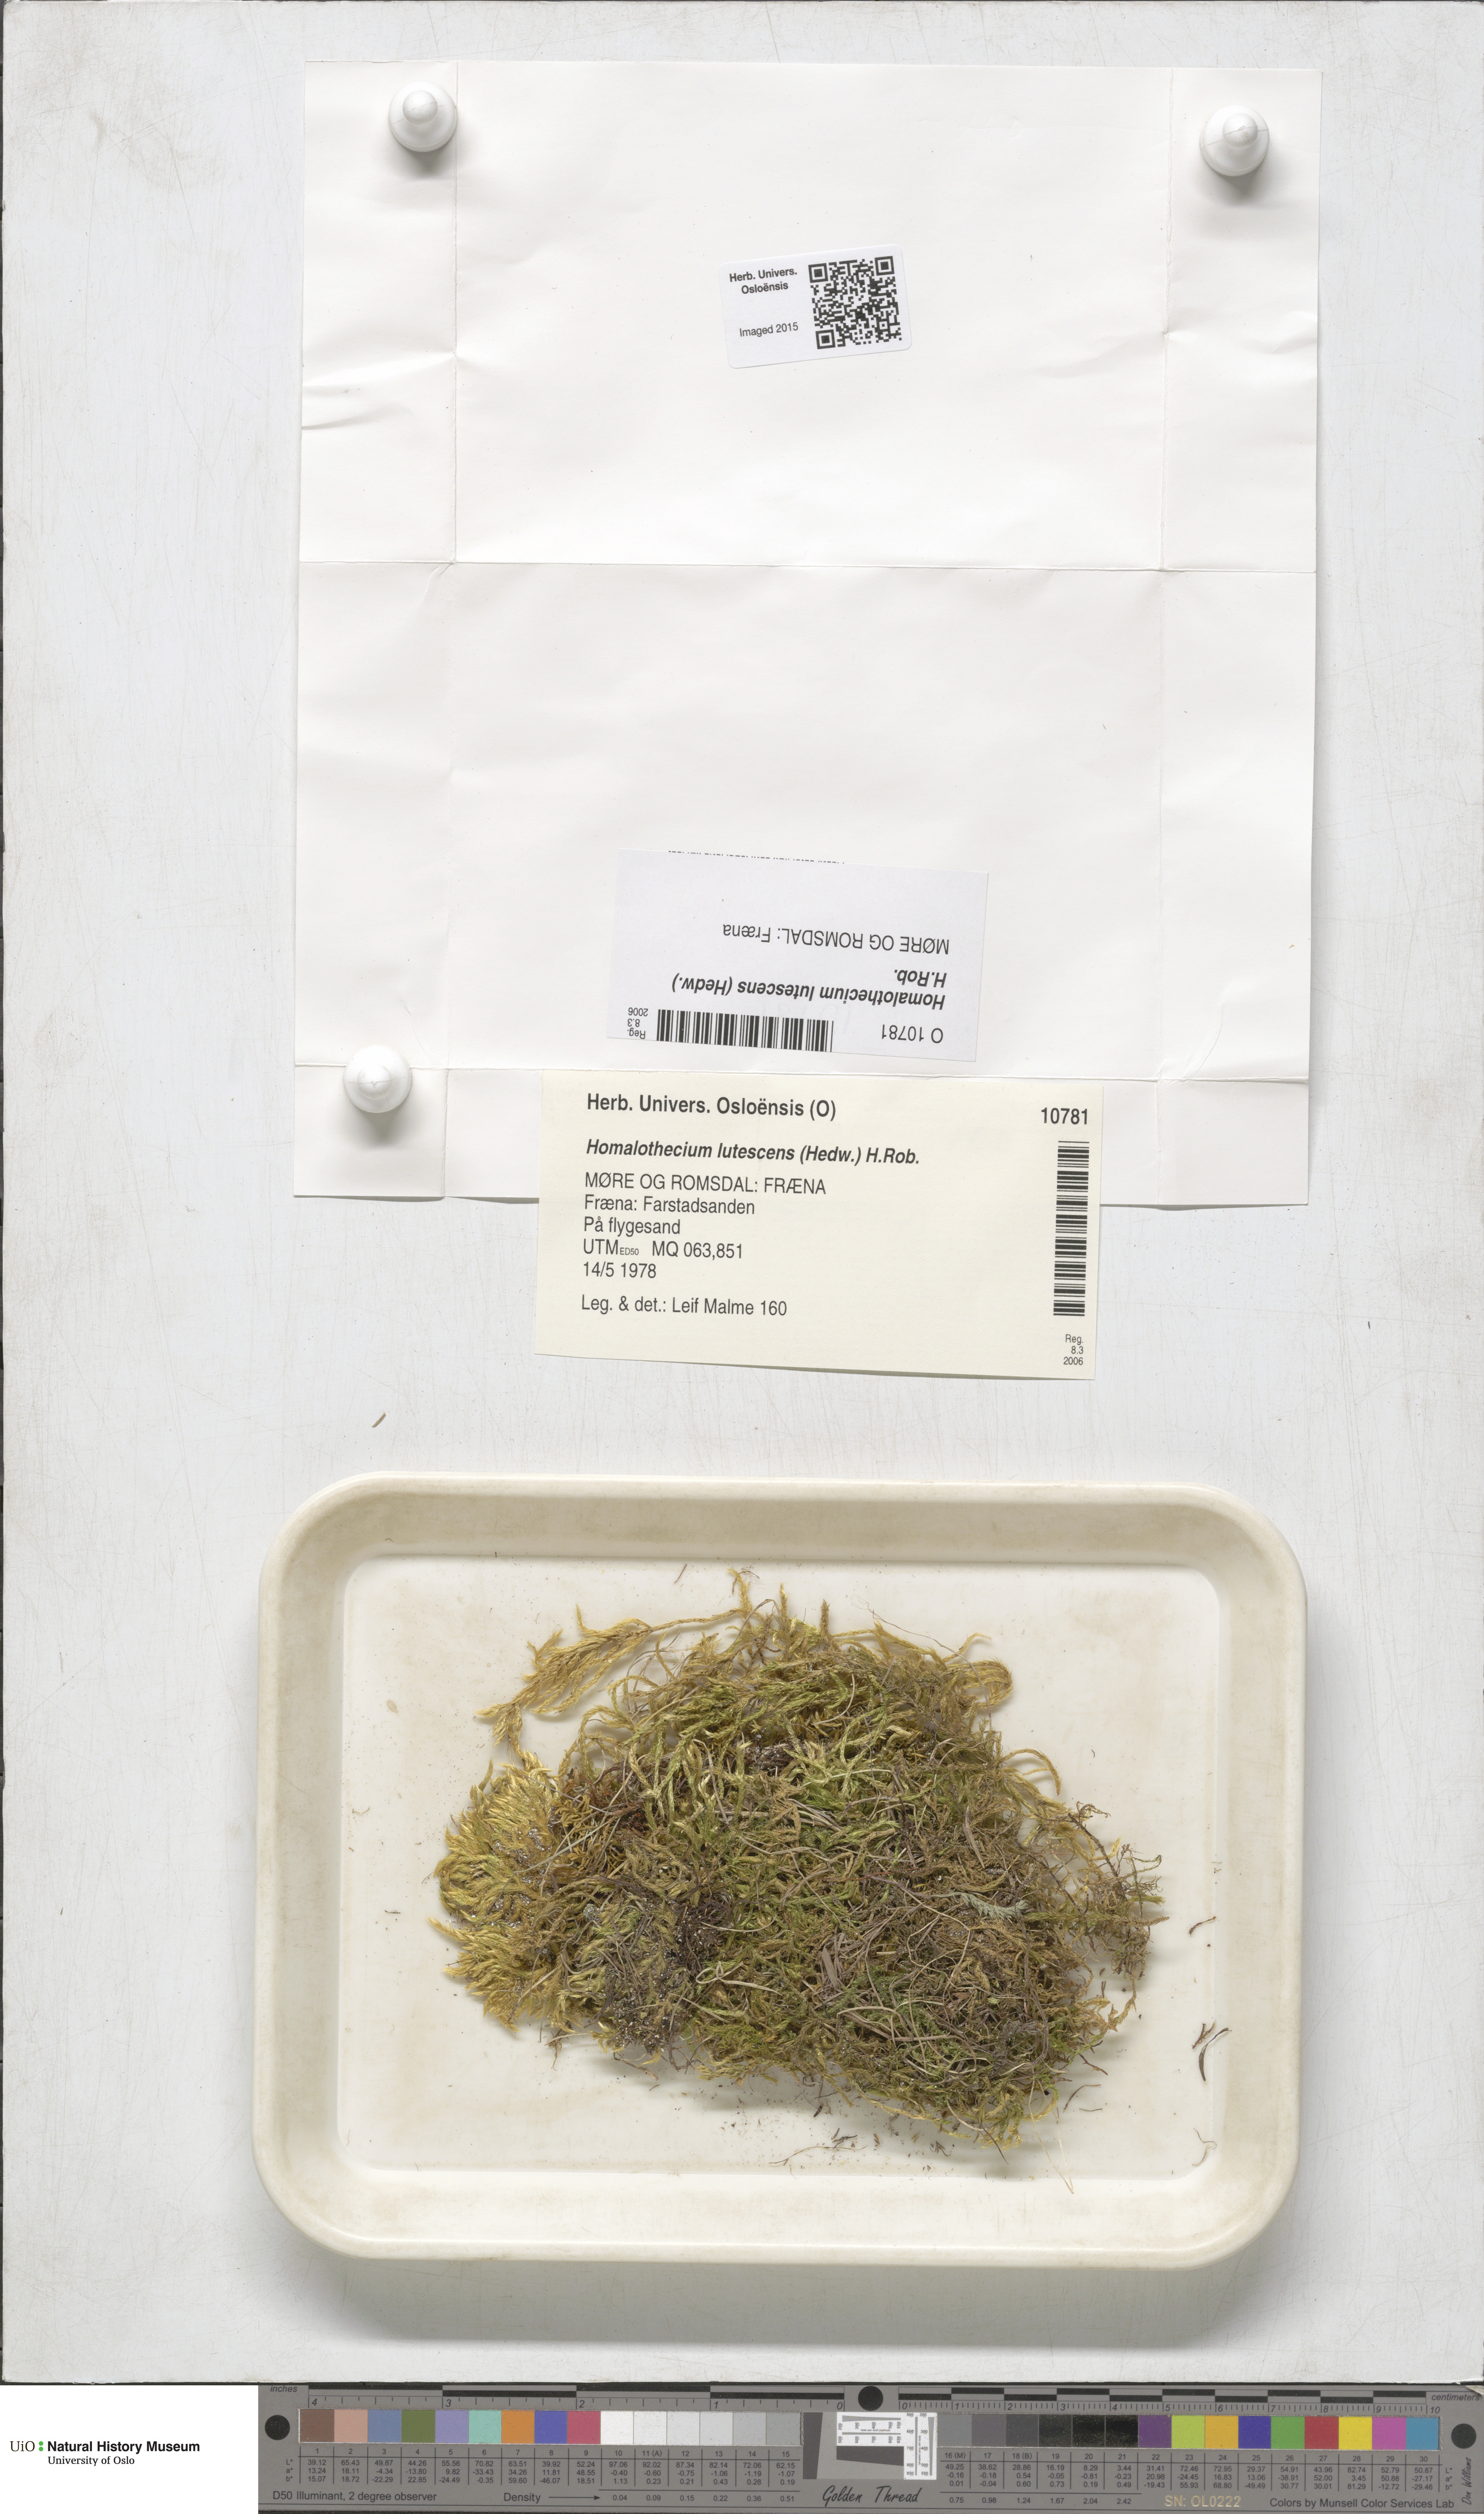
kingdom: Plantae
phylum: Bryophyta
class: Bryopsida
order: Hypnales
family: Brachytheciaceae
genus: Homalothecium
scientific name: Homalothecium lutescens
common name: Yellow feather-moss
